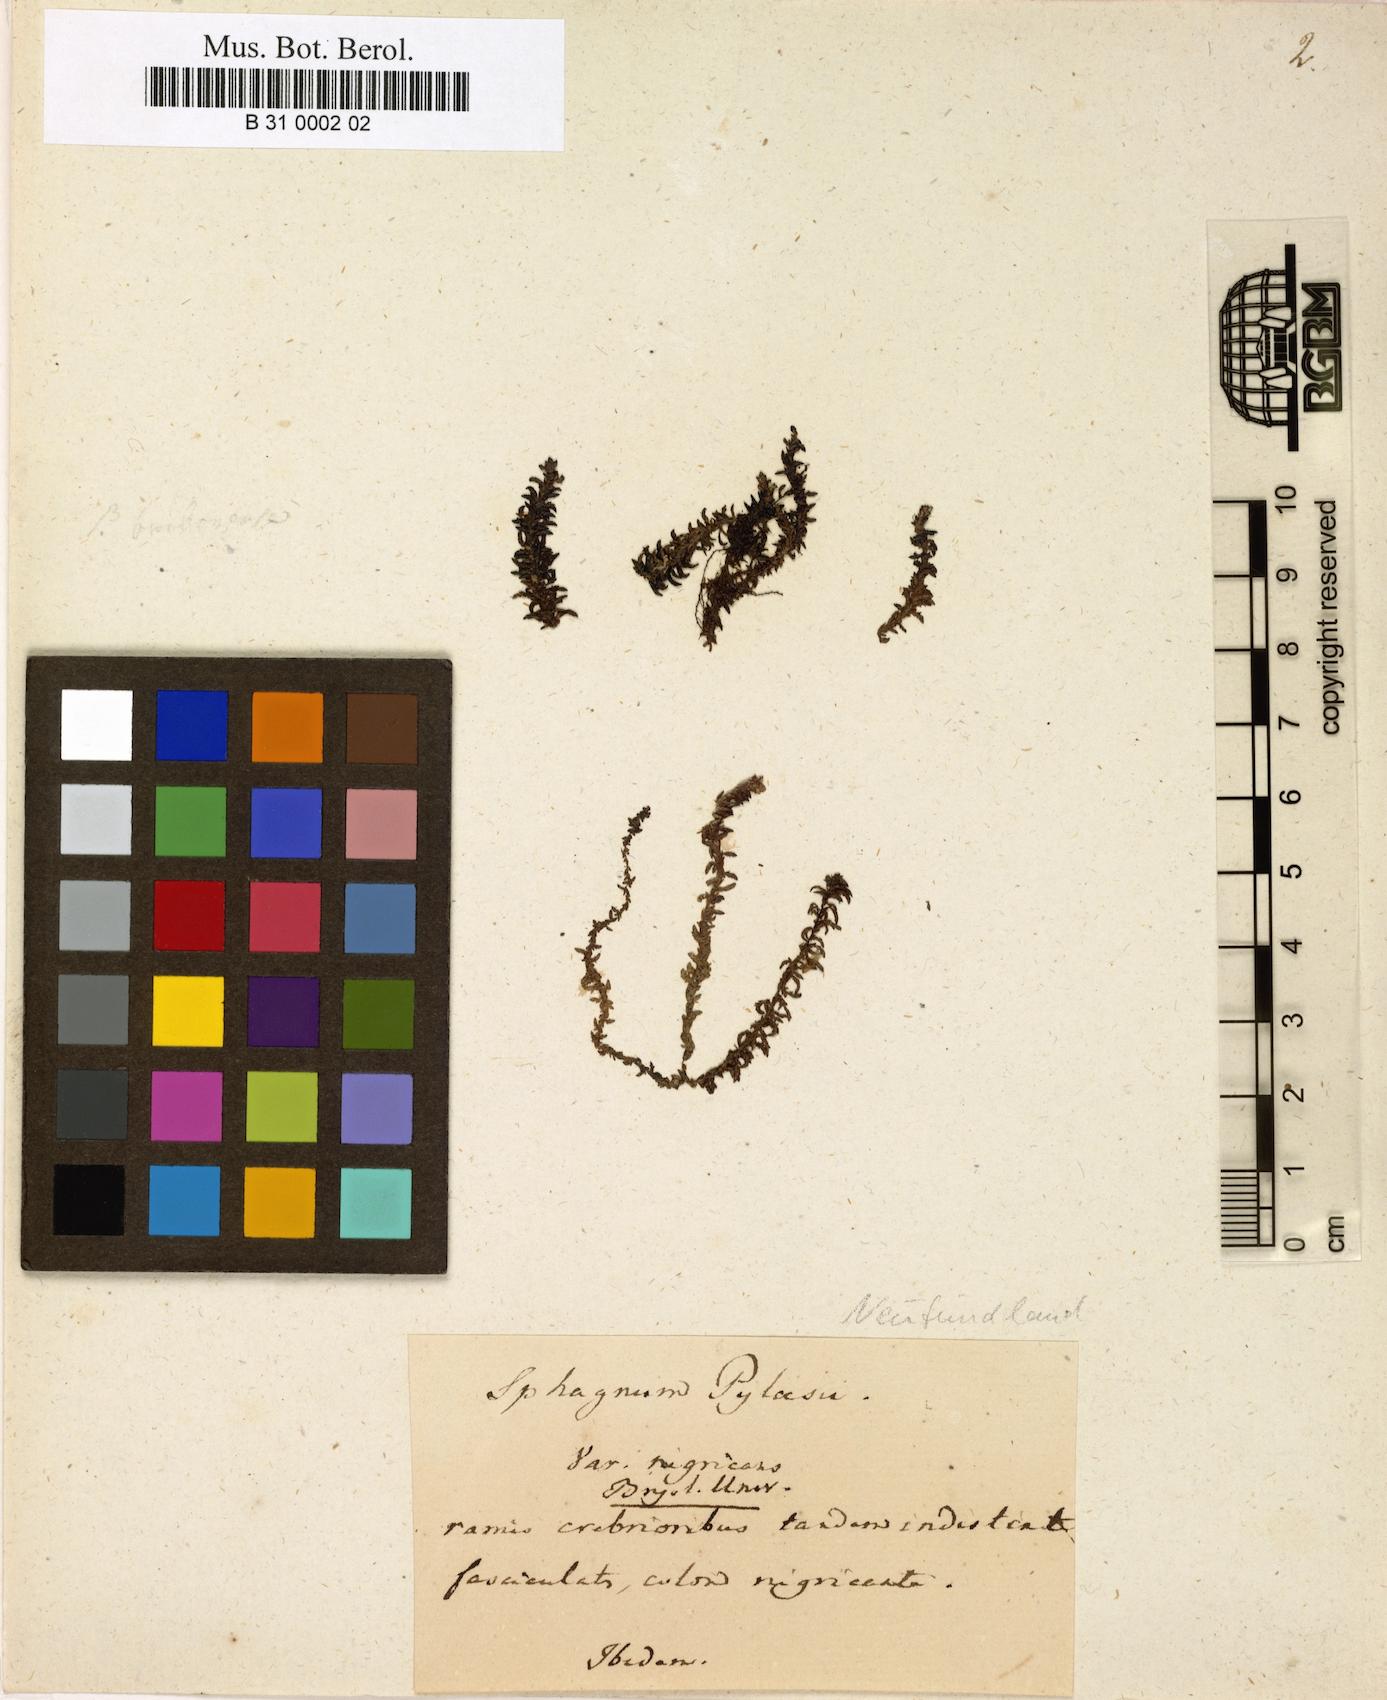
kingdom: Plantae
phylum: Bryophyta
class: Sphagnopsida
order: Sphagnales
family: Sphagnaceae
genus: Sphagnum
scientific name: Sphagnum pylaesii
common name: Pylaie's peat moss
